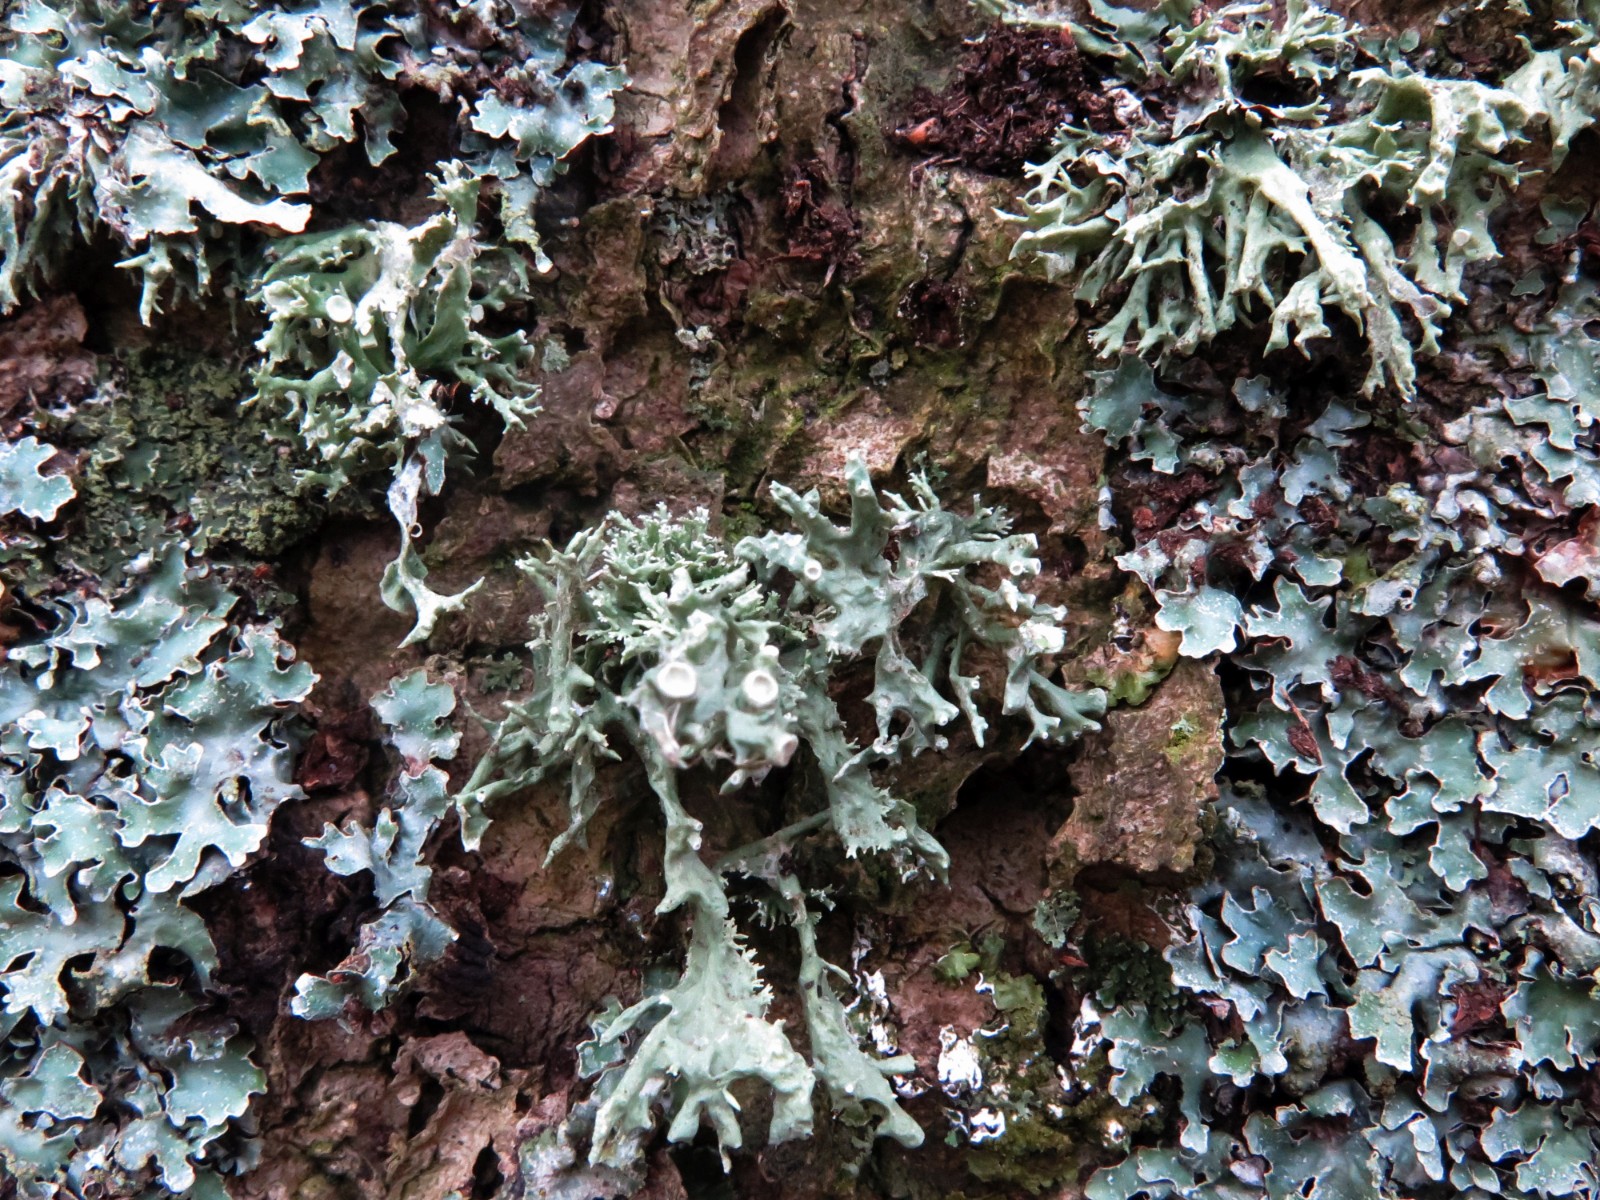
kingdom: Fungi
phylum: Ascomycota
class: Lecanoromycetes
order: Lecanorales
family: Ramalinaceae
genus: Ramalina
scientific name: Ramalina fastigiata
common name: tue-grenlav
